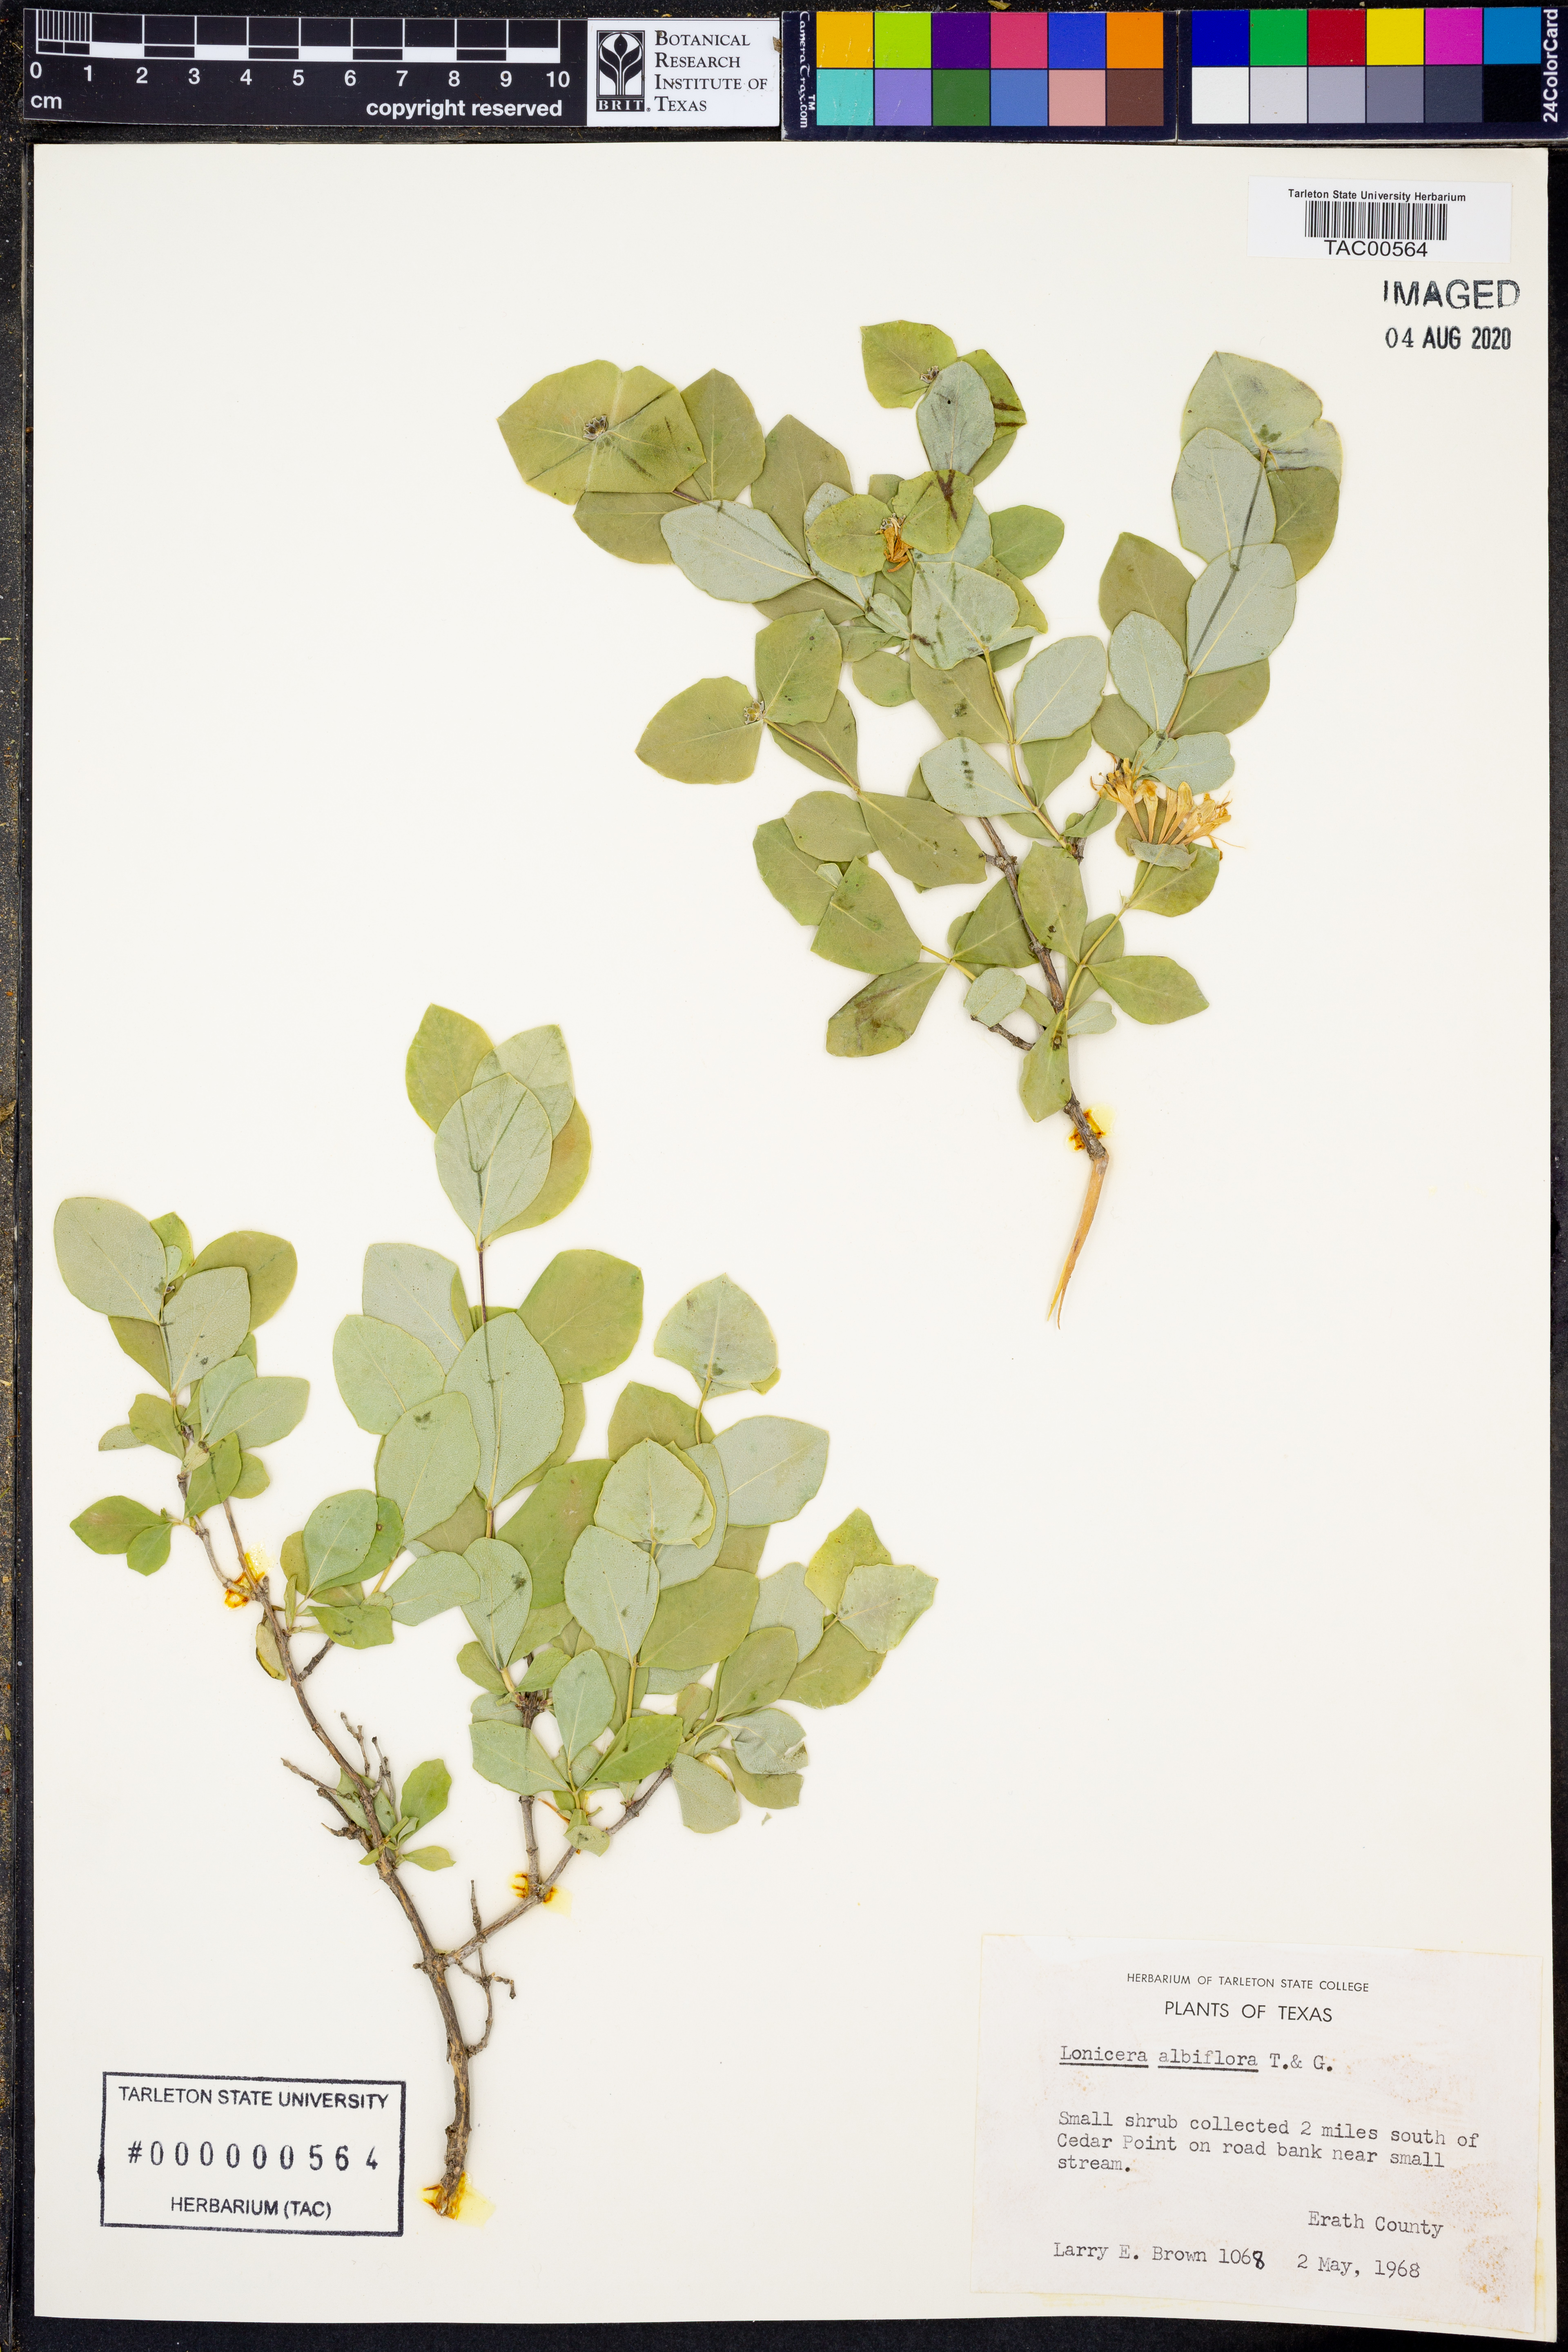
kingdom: Plantae
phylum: Tracheophyta
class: Magnoliopsida
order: Dipsacales
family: Caprifoliaceae
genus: Lonicera
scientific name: Lonicera albiflora
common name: White honeysuckle
